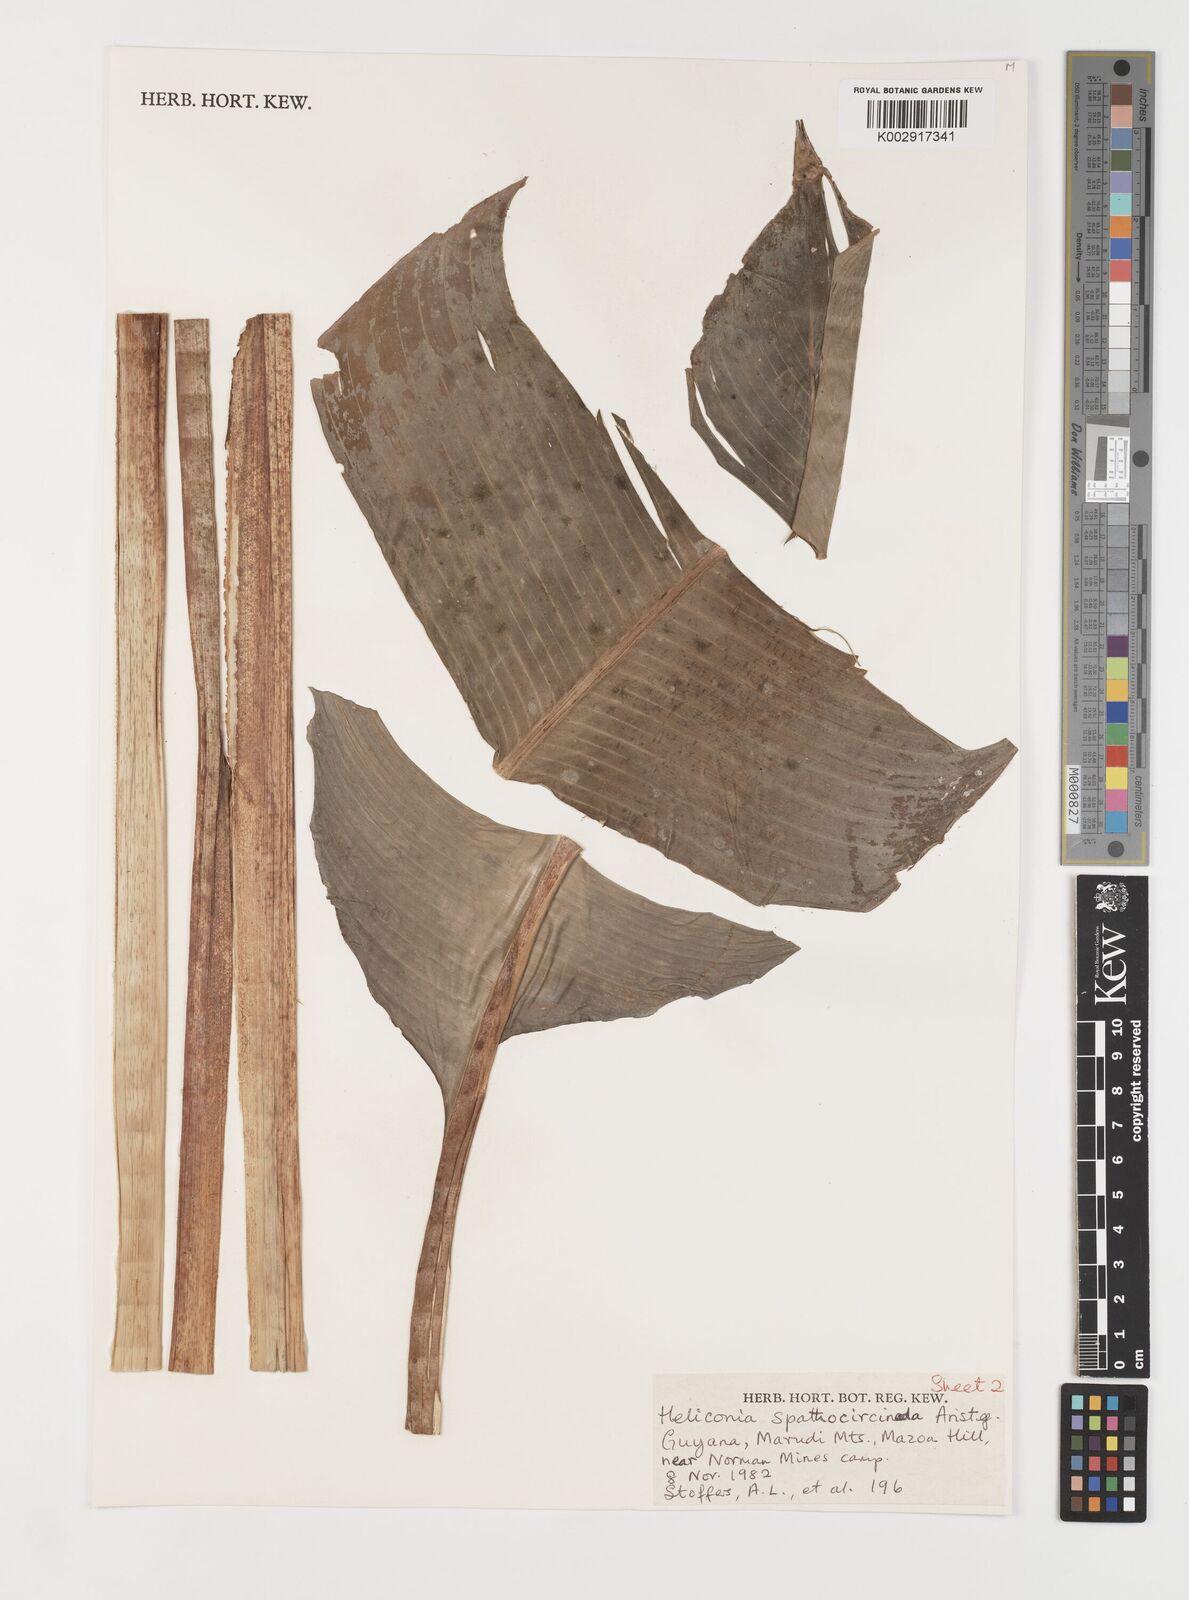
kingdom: Plantae
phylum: Tracheophyta
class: Liliopsida
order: Zingiberales
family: Heliconiaceae
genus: Heliconia
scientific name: Heliconia spathocircinata
